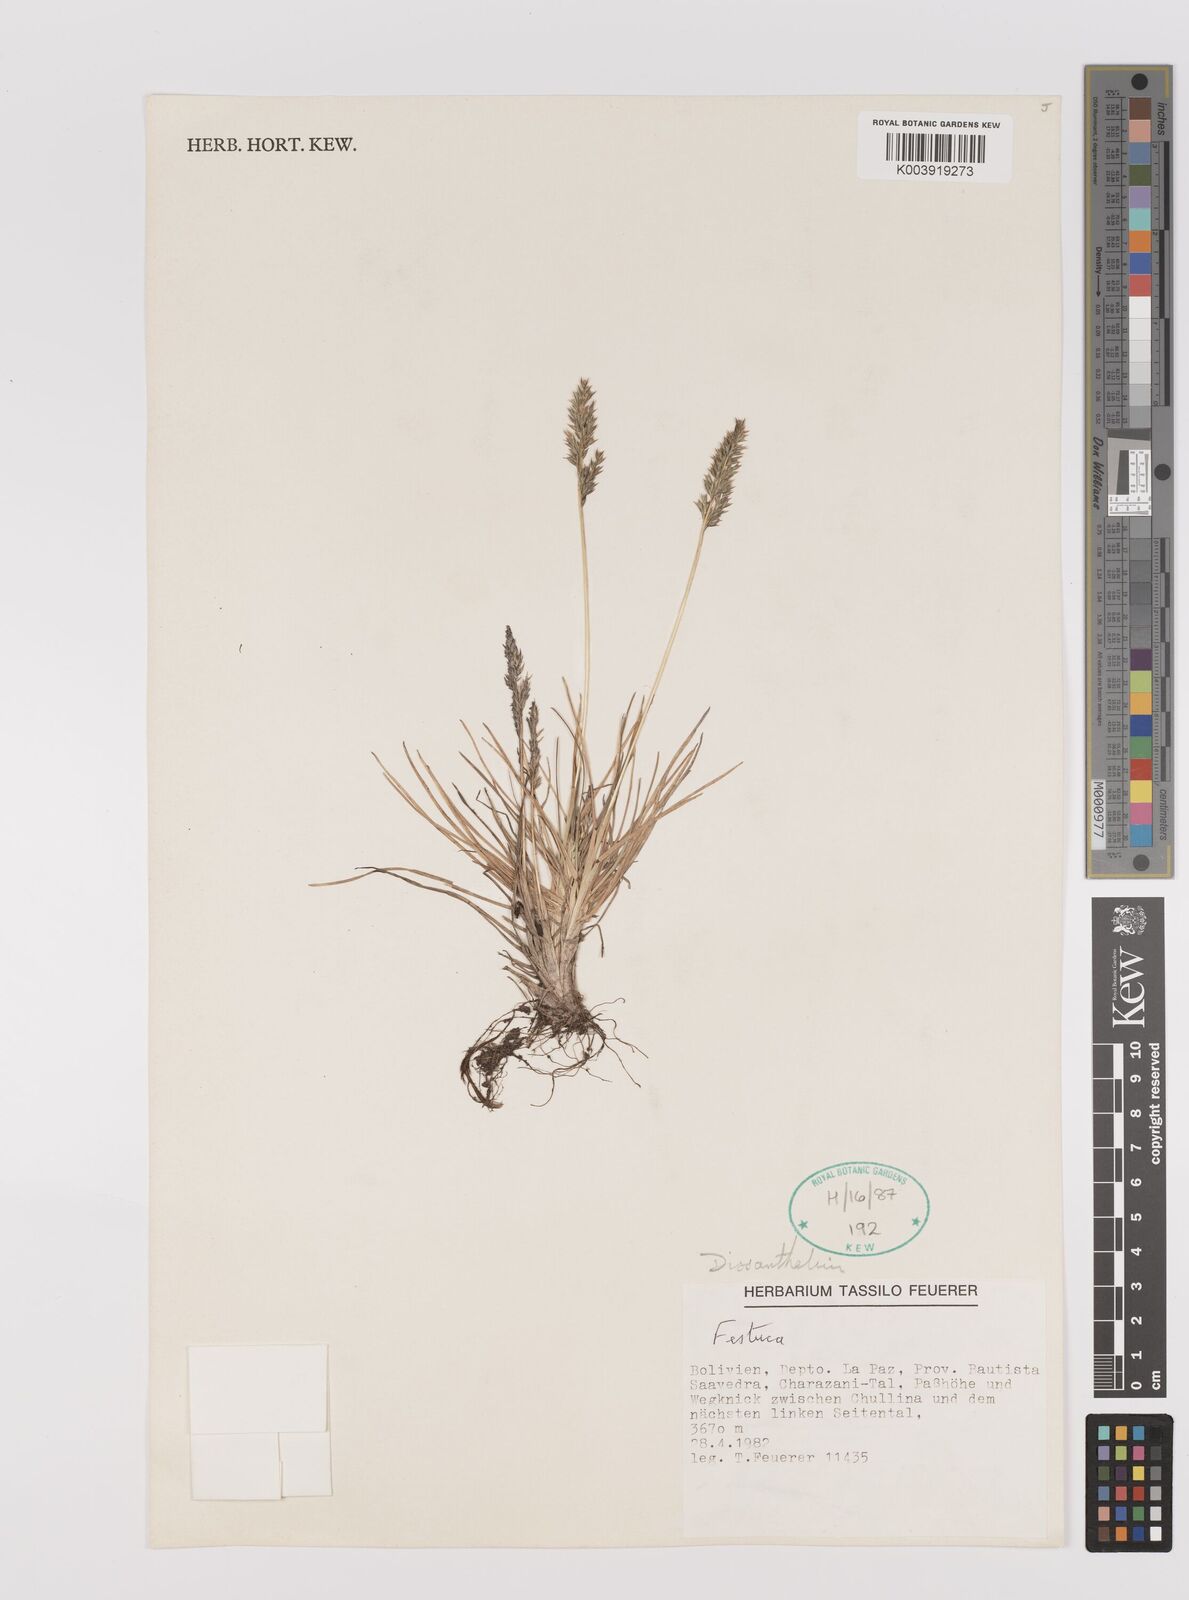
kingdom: Plantae
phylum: Tracheophyta
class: Liliopsida
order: Poales
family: Poaceae
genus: Poa
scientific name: Poa calycina
